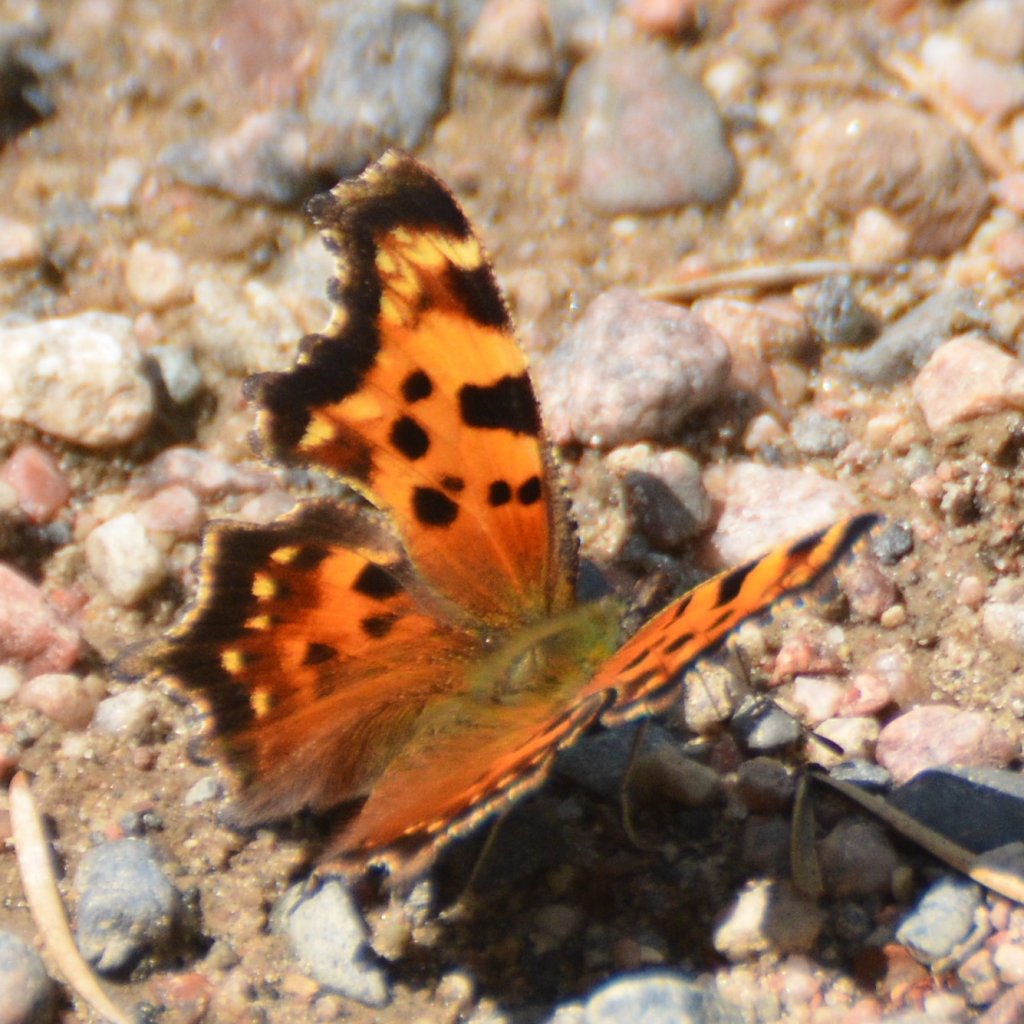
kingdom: Animalia
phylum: Arthropoda
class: Insecta
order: Lepidoptera
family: Nymphalidae
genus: Polygonia
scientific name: Polygonia faunus
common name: Green Comma
